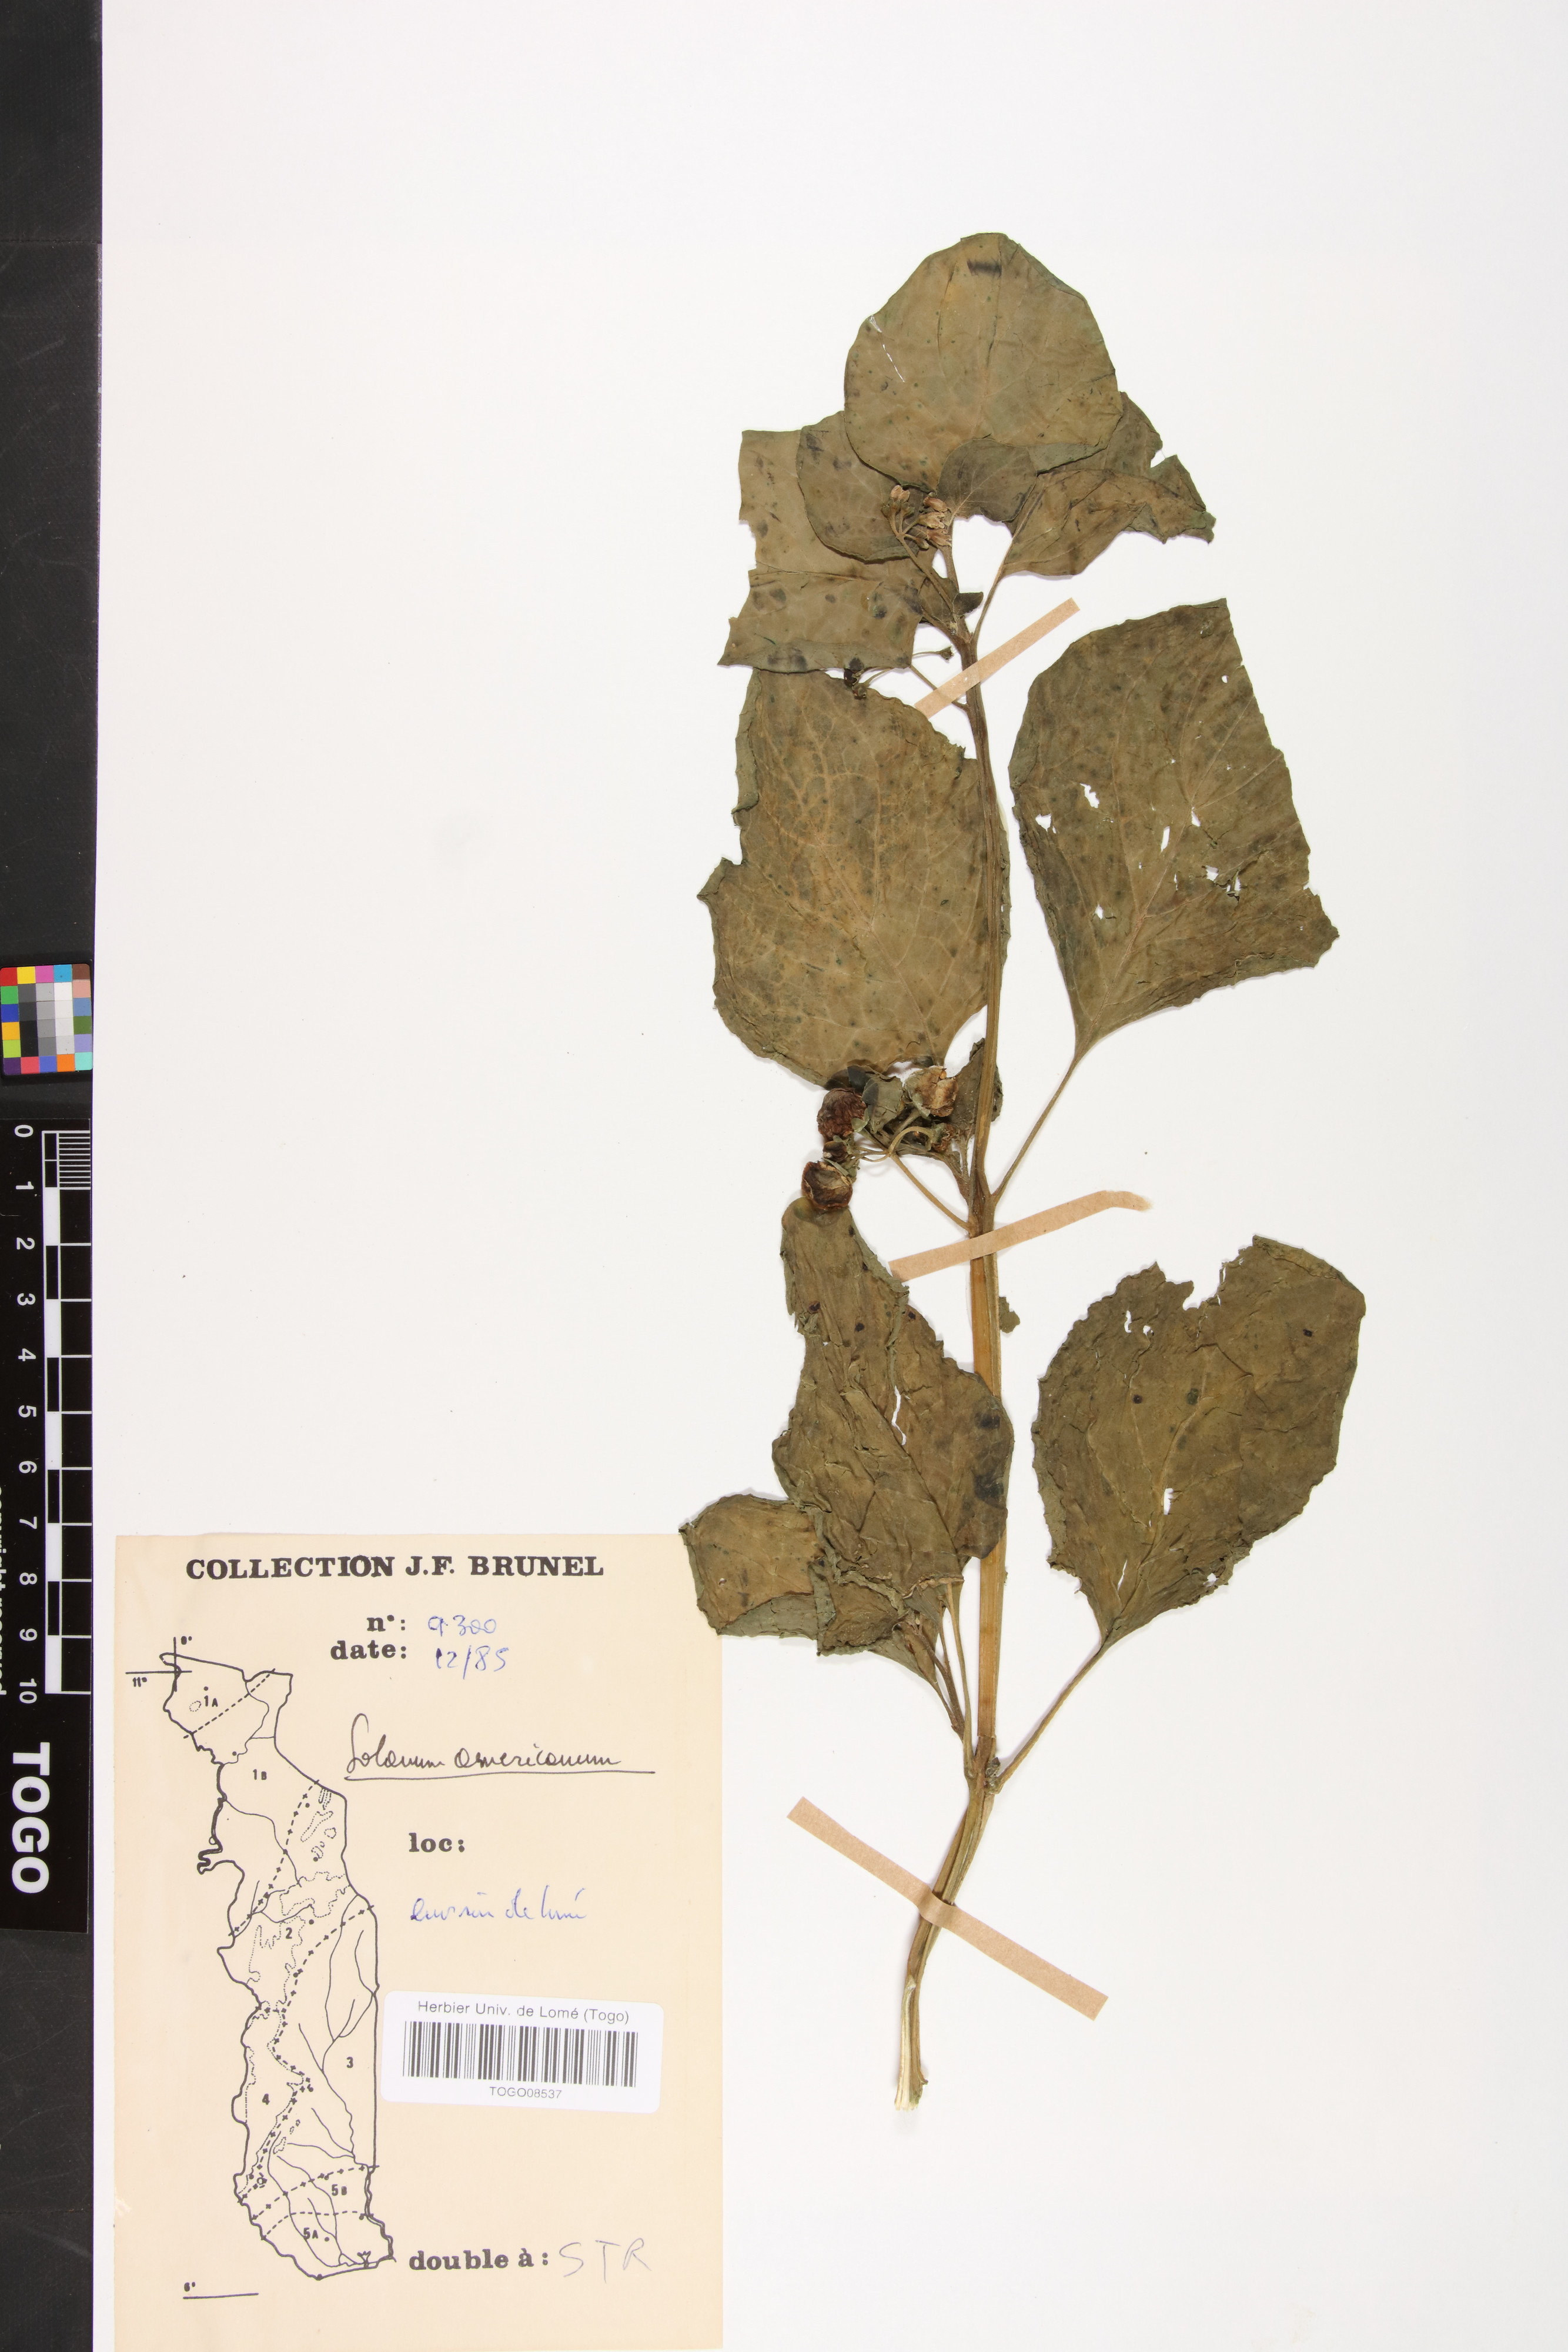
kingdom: Plantae
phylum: Tracheophyta
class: Magnoliopsida
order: Solanales
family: Solanaceae
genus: Solanum
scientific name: Solanum americanum
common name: American black nightshade
